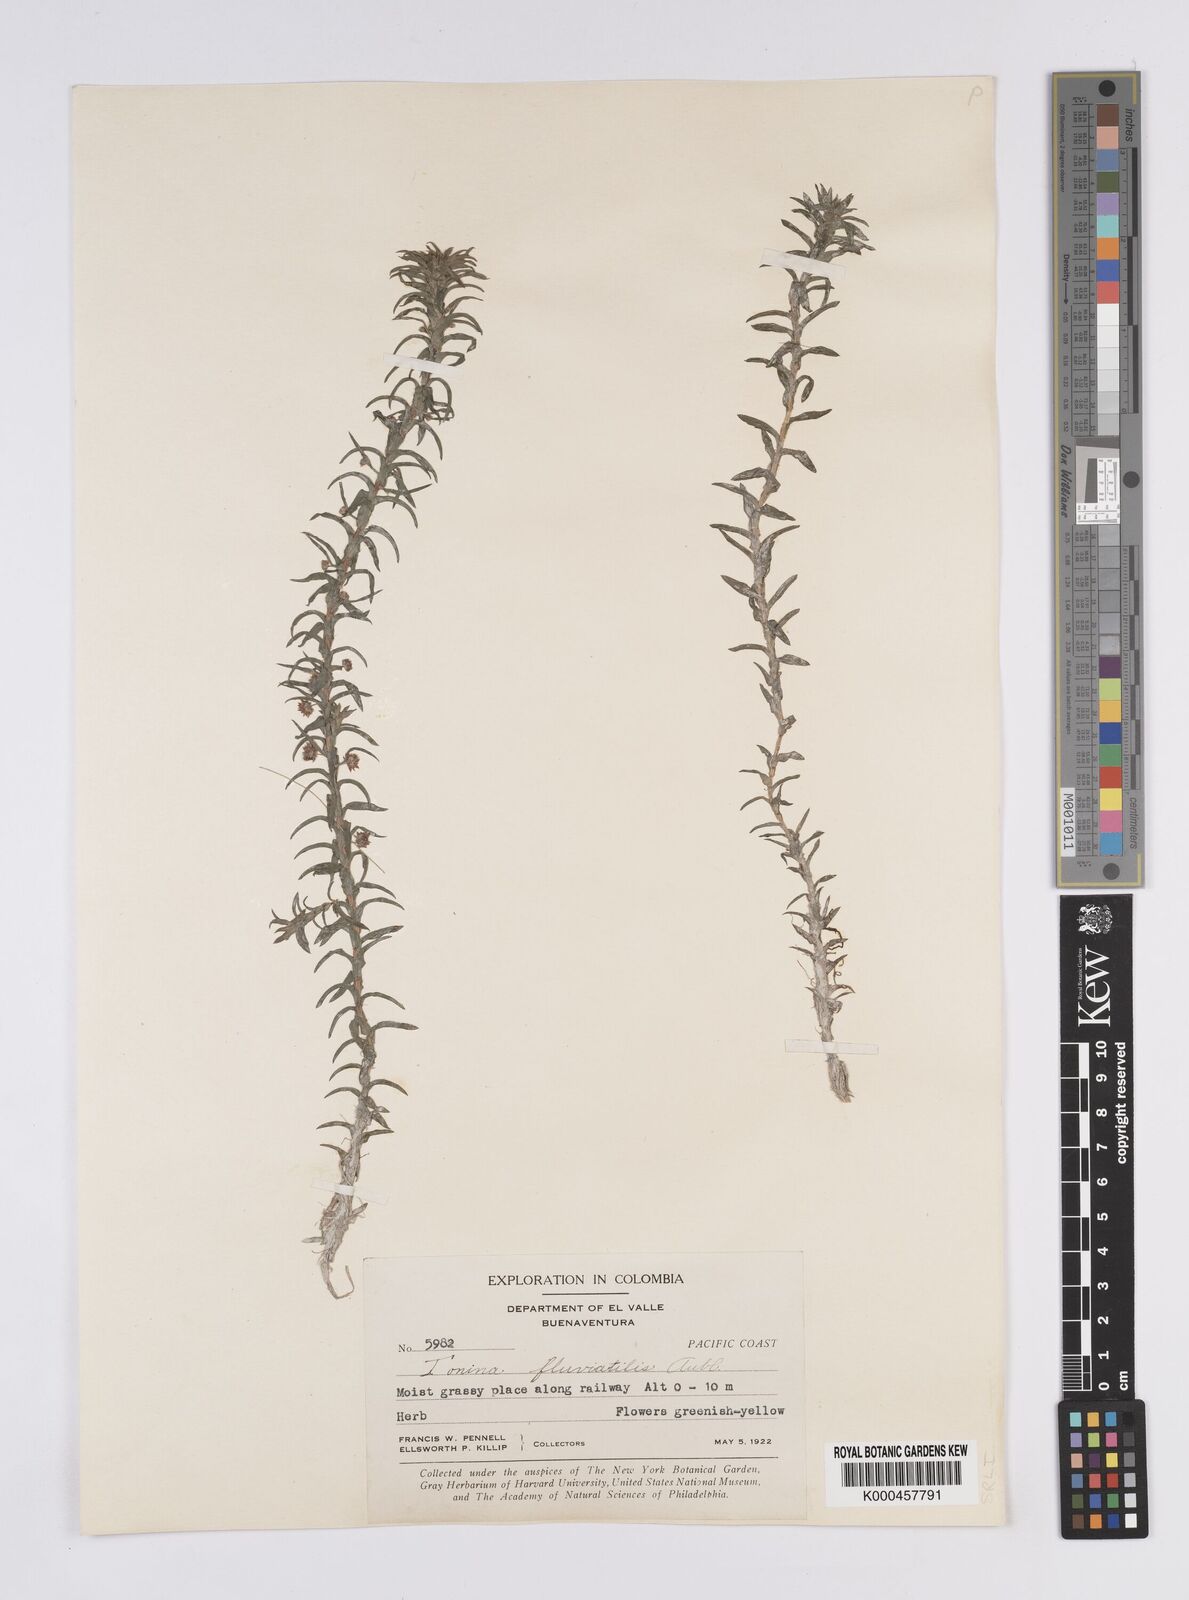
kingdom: Plantae
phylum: Tracheophyta
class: Liliopsida
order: Poales
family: Eriocaulaceae
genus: Paepalanthus
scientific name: Paepalanthus fluviatilis
